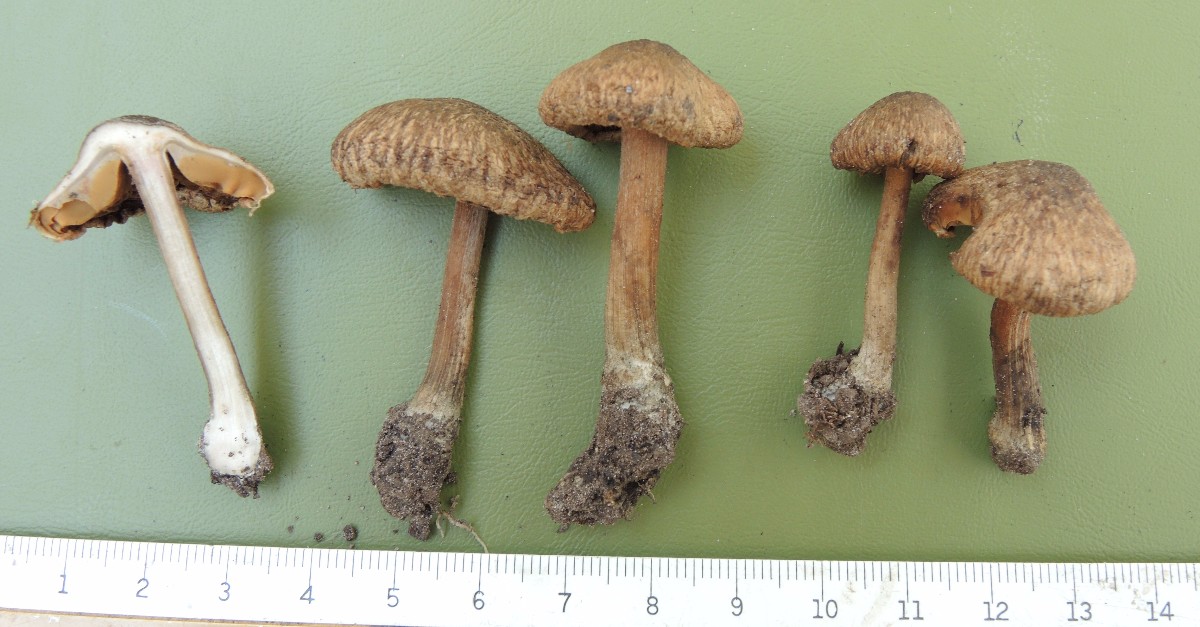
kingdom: Fungi
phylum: Basidiomycota
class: Agaricomycetes
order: Agaricales
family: Inocybaceae
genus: Inocybe
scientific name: Inocybe erinaceomorpha
